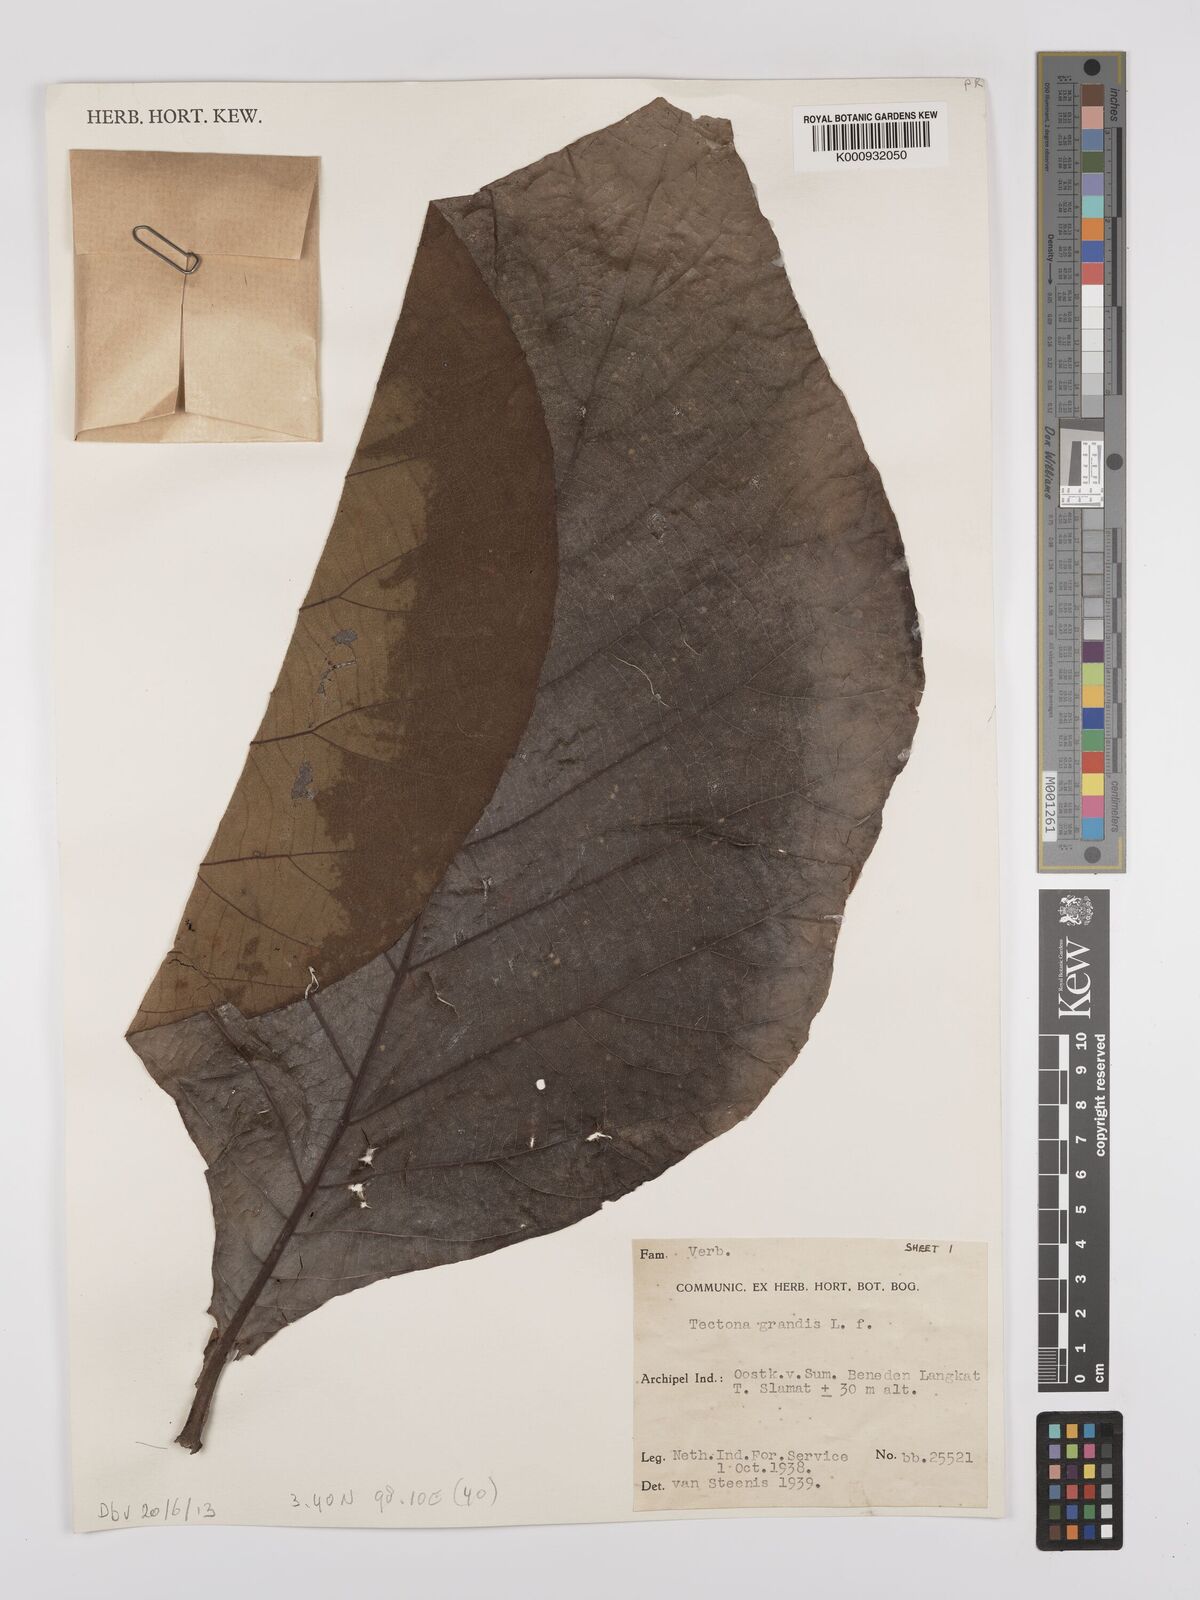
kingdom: Plantae
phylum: Tracheophyta
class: Magnoliopsida
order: Lamiales
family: Lamiaceae
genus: Tectona
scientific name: Tectona grandis
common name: Teak
